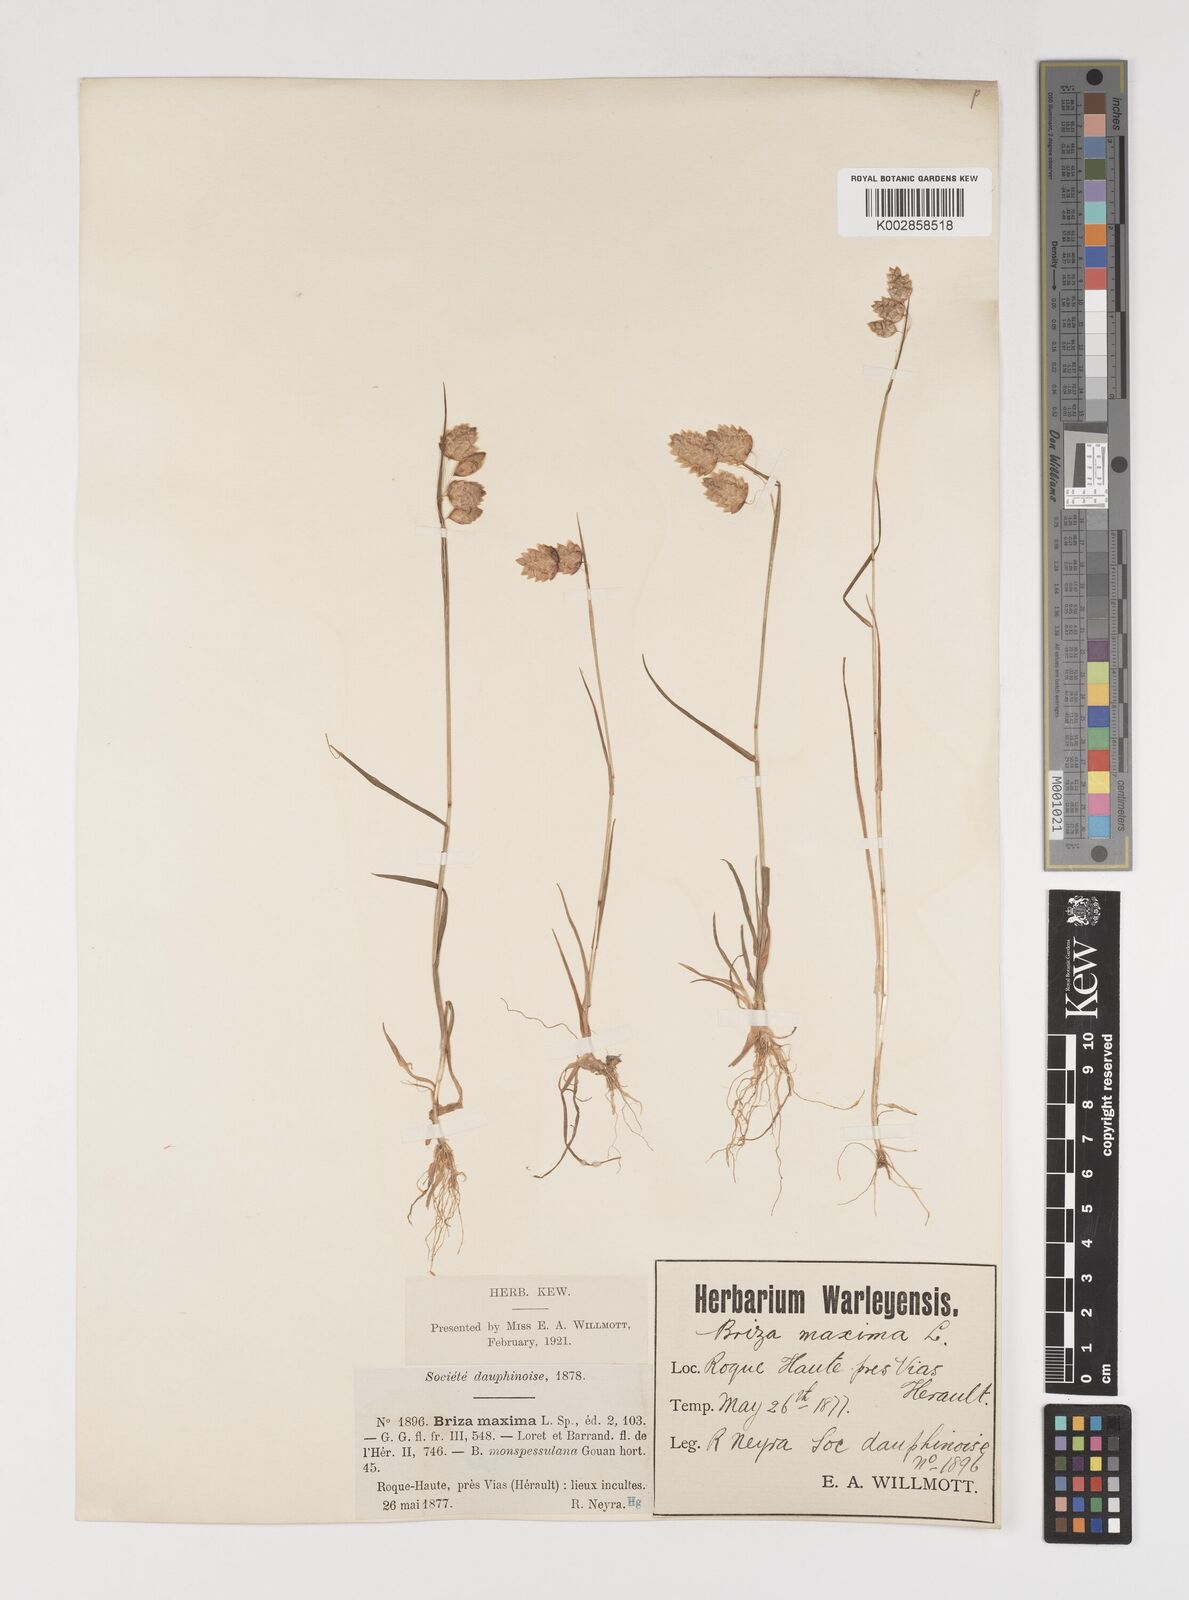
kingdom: Plantae
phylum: Tracheophyta
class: Liliopsida
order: Poales
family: Poaceae
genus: Briza
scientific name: Briza maxima
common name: Big quakinggrass
